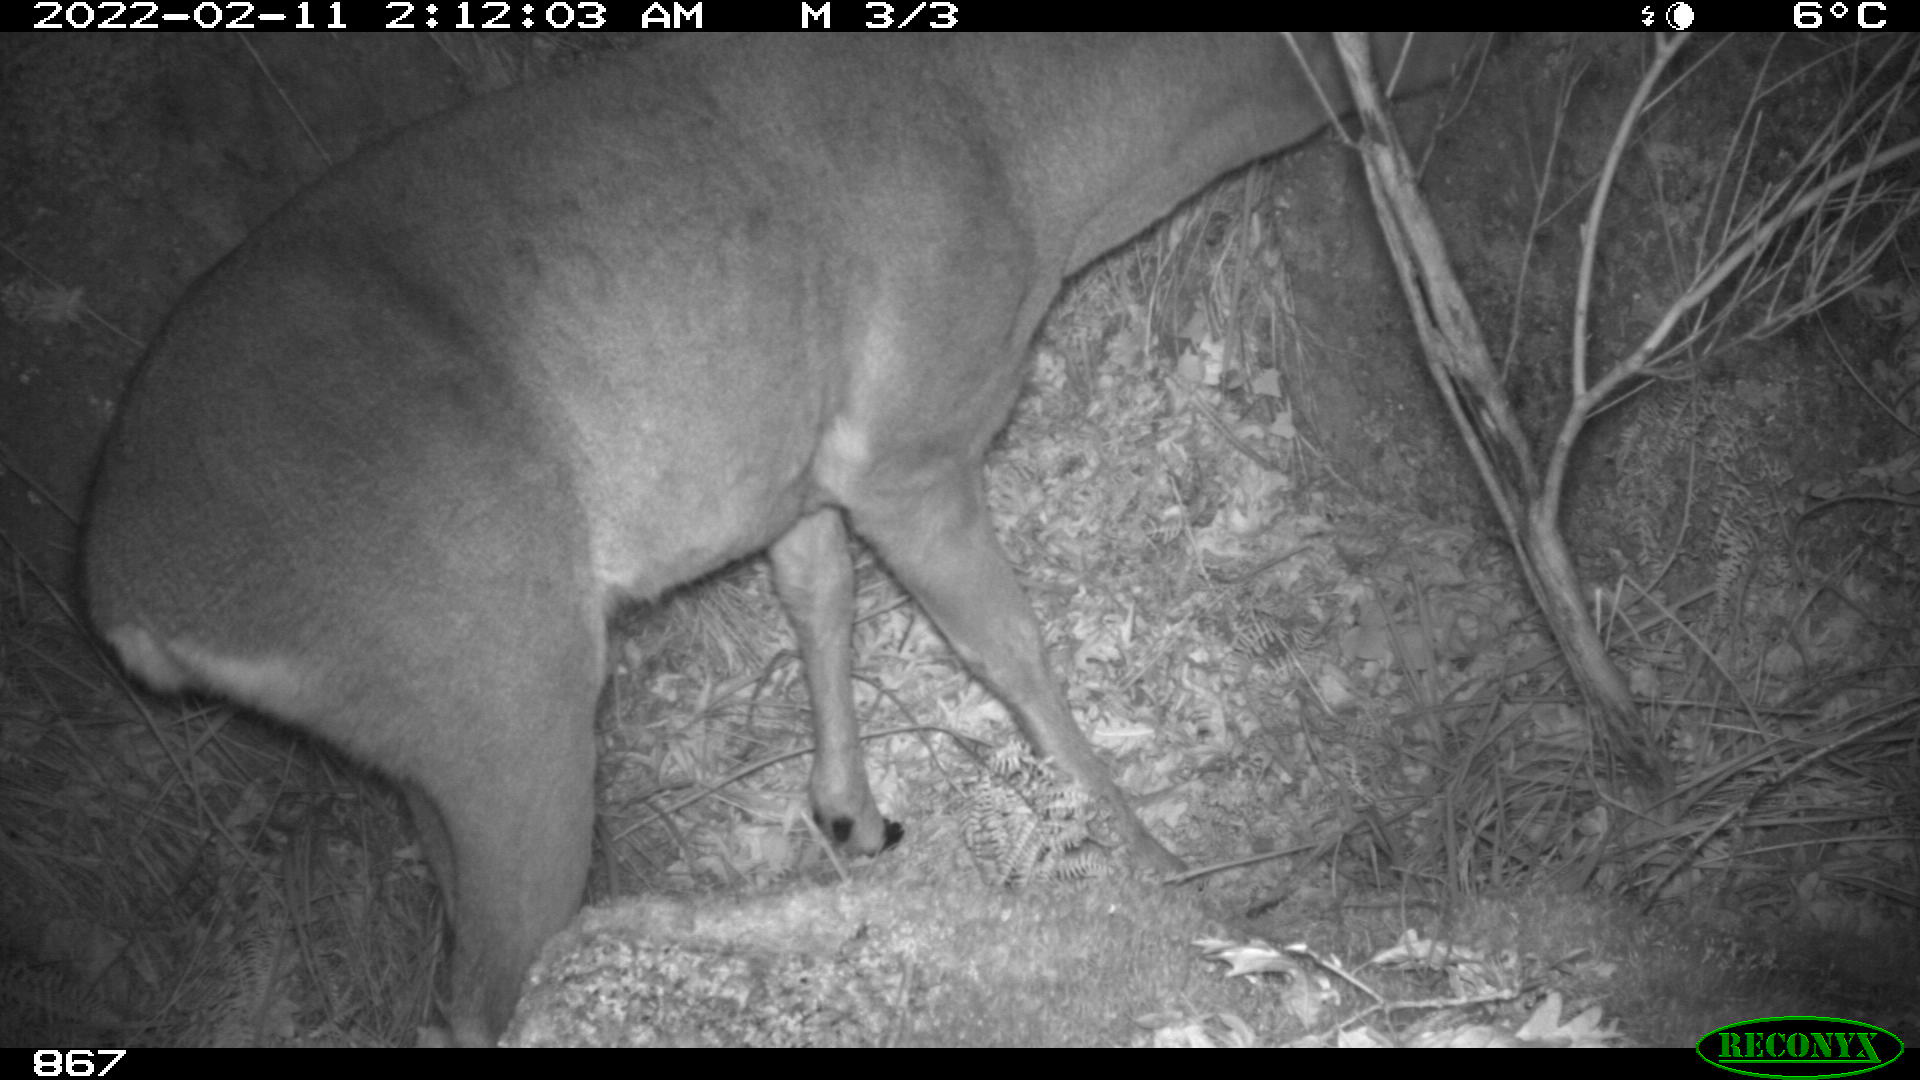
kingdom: Animalia
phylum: Chordata
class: Mammalia
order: Artiodactyla
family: Cervidae
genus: Capreolus
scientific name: Capreolus capreolus
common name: Western roe deer
